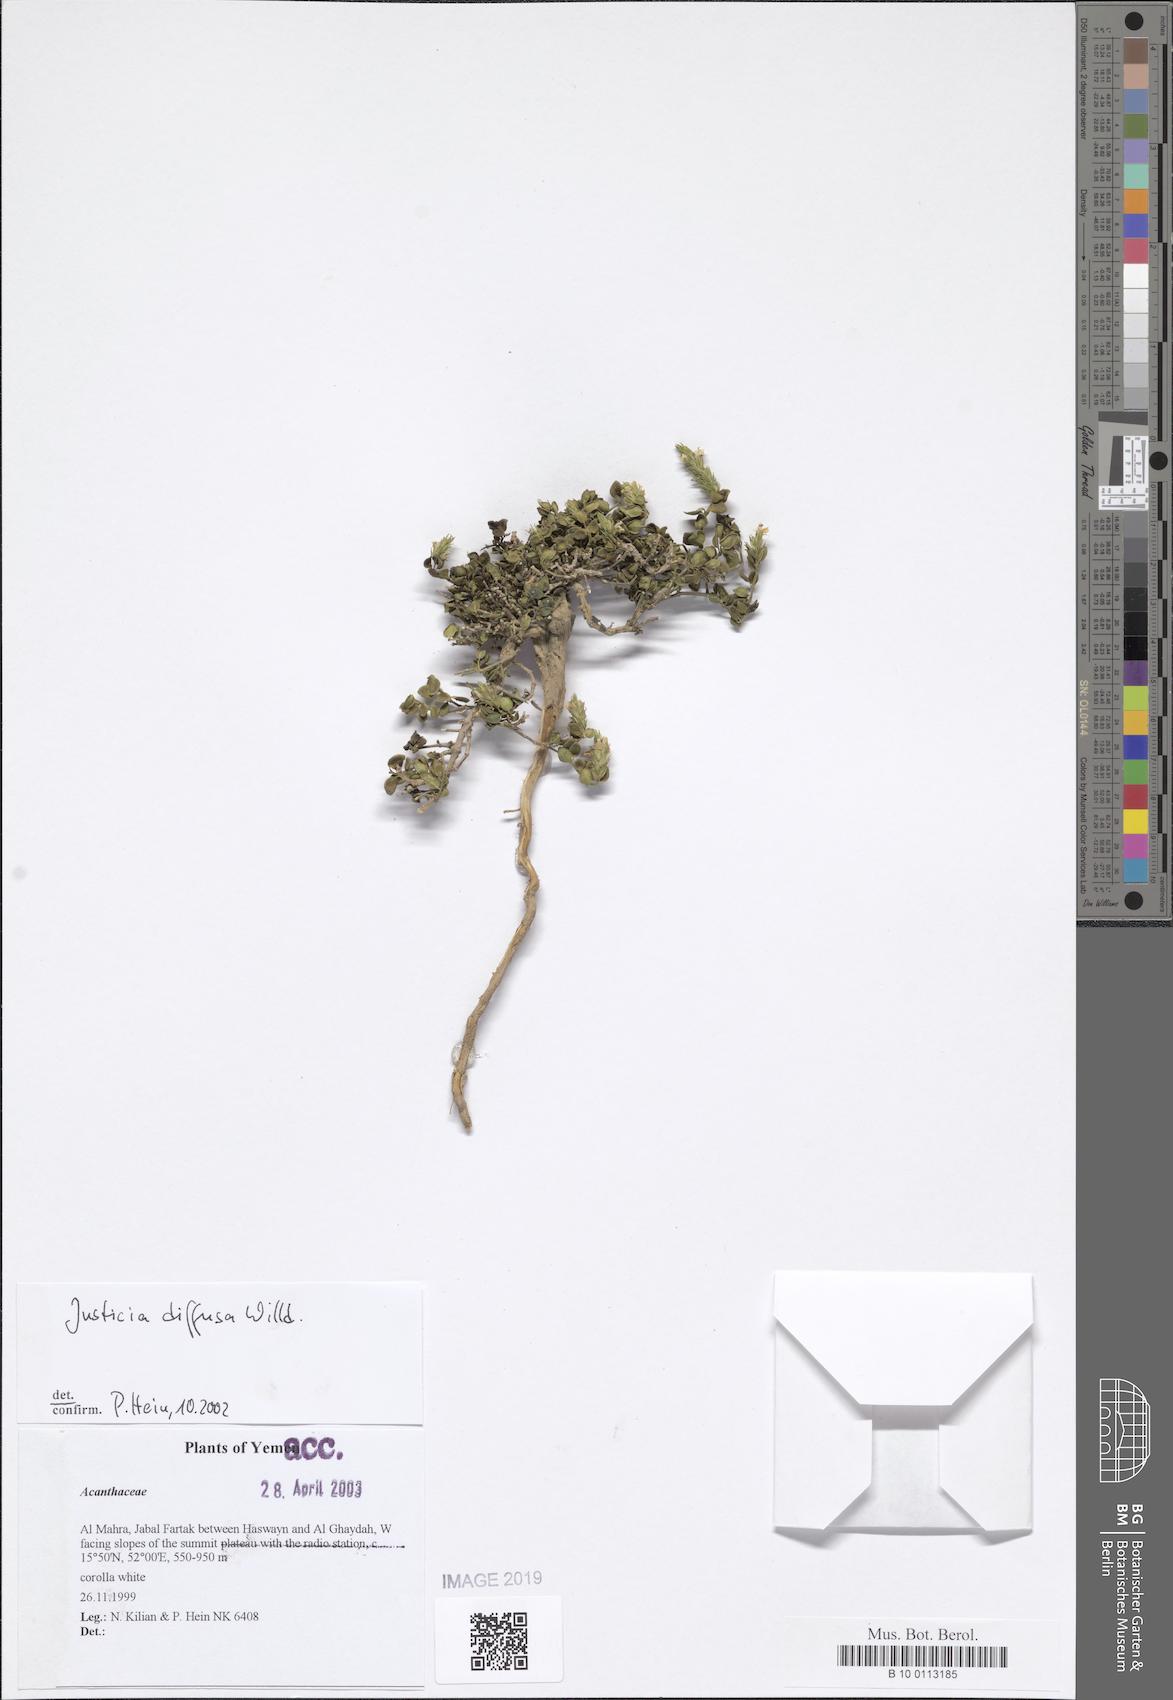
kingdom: Plantae
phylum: Tracheophyta
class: Magnoliopsida
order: Lamiales
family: Acanthaceae
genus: Rostellularia
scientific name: Rostellularia diffusa
